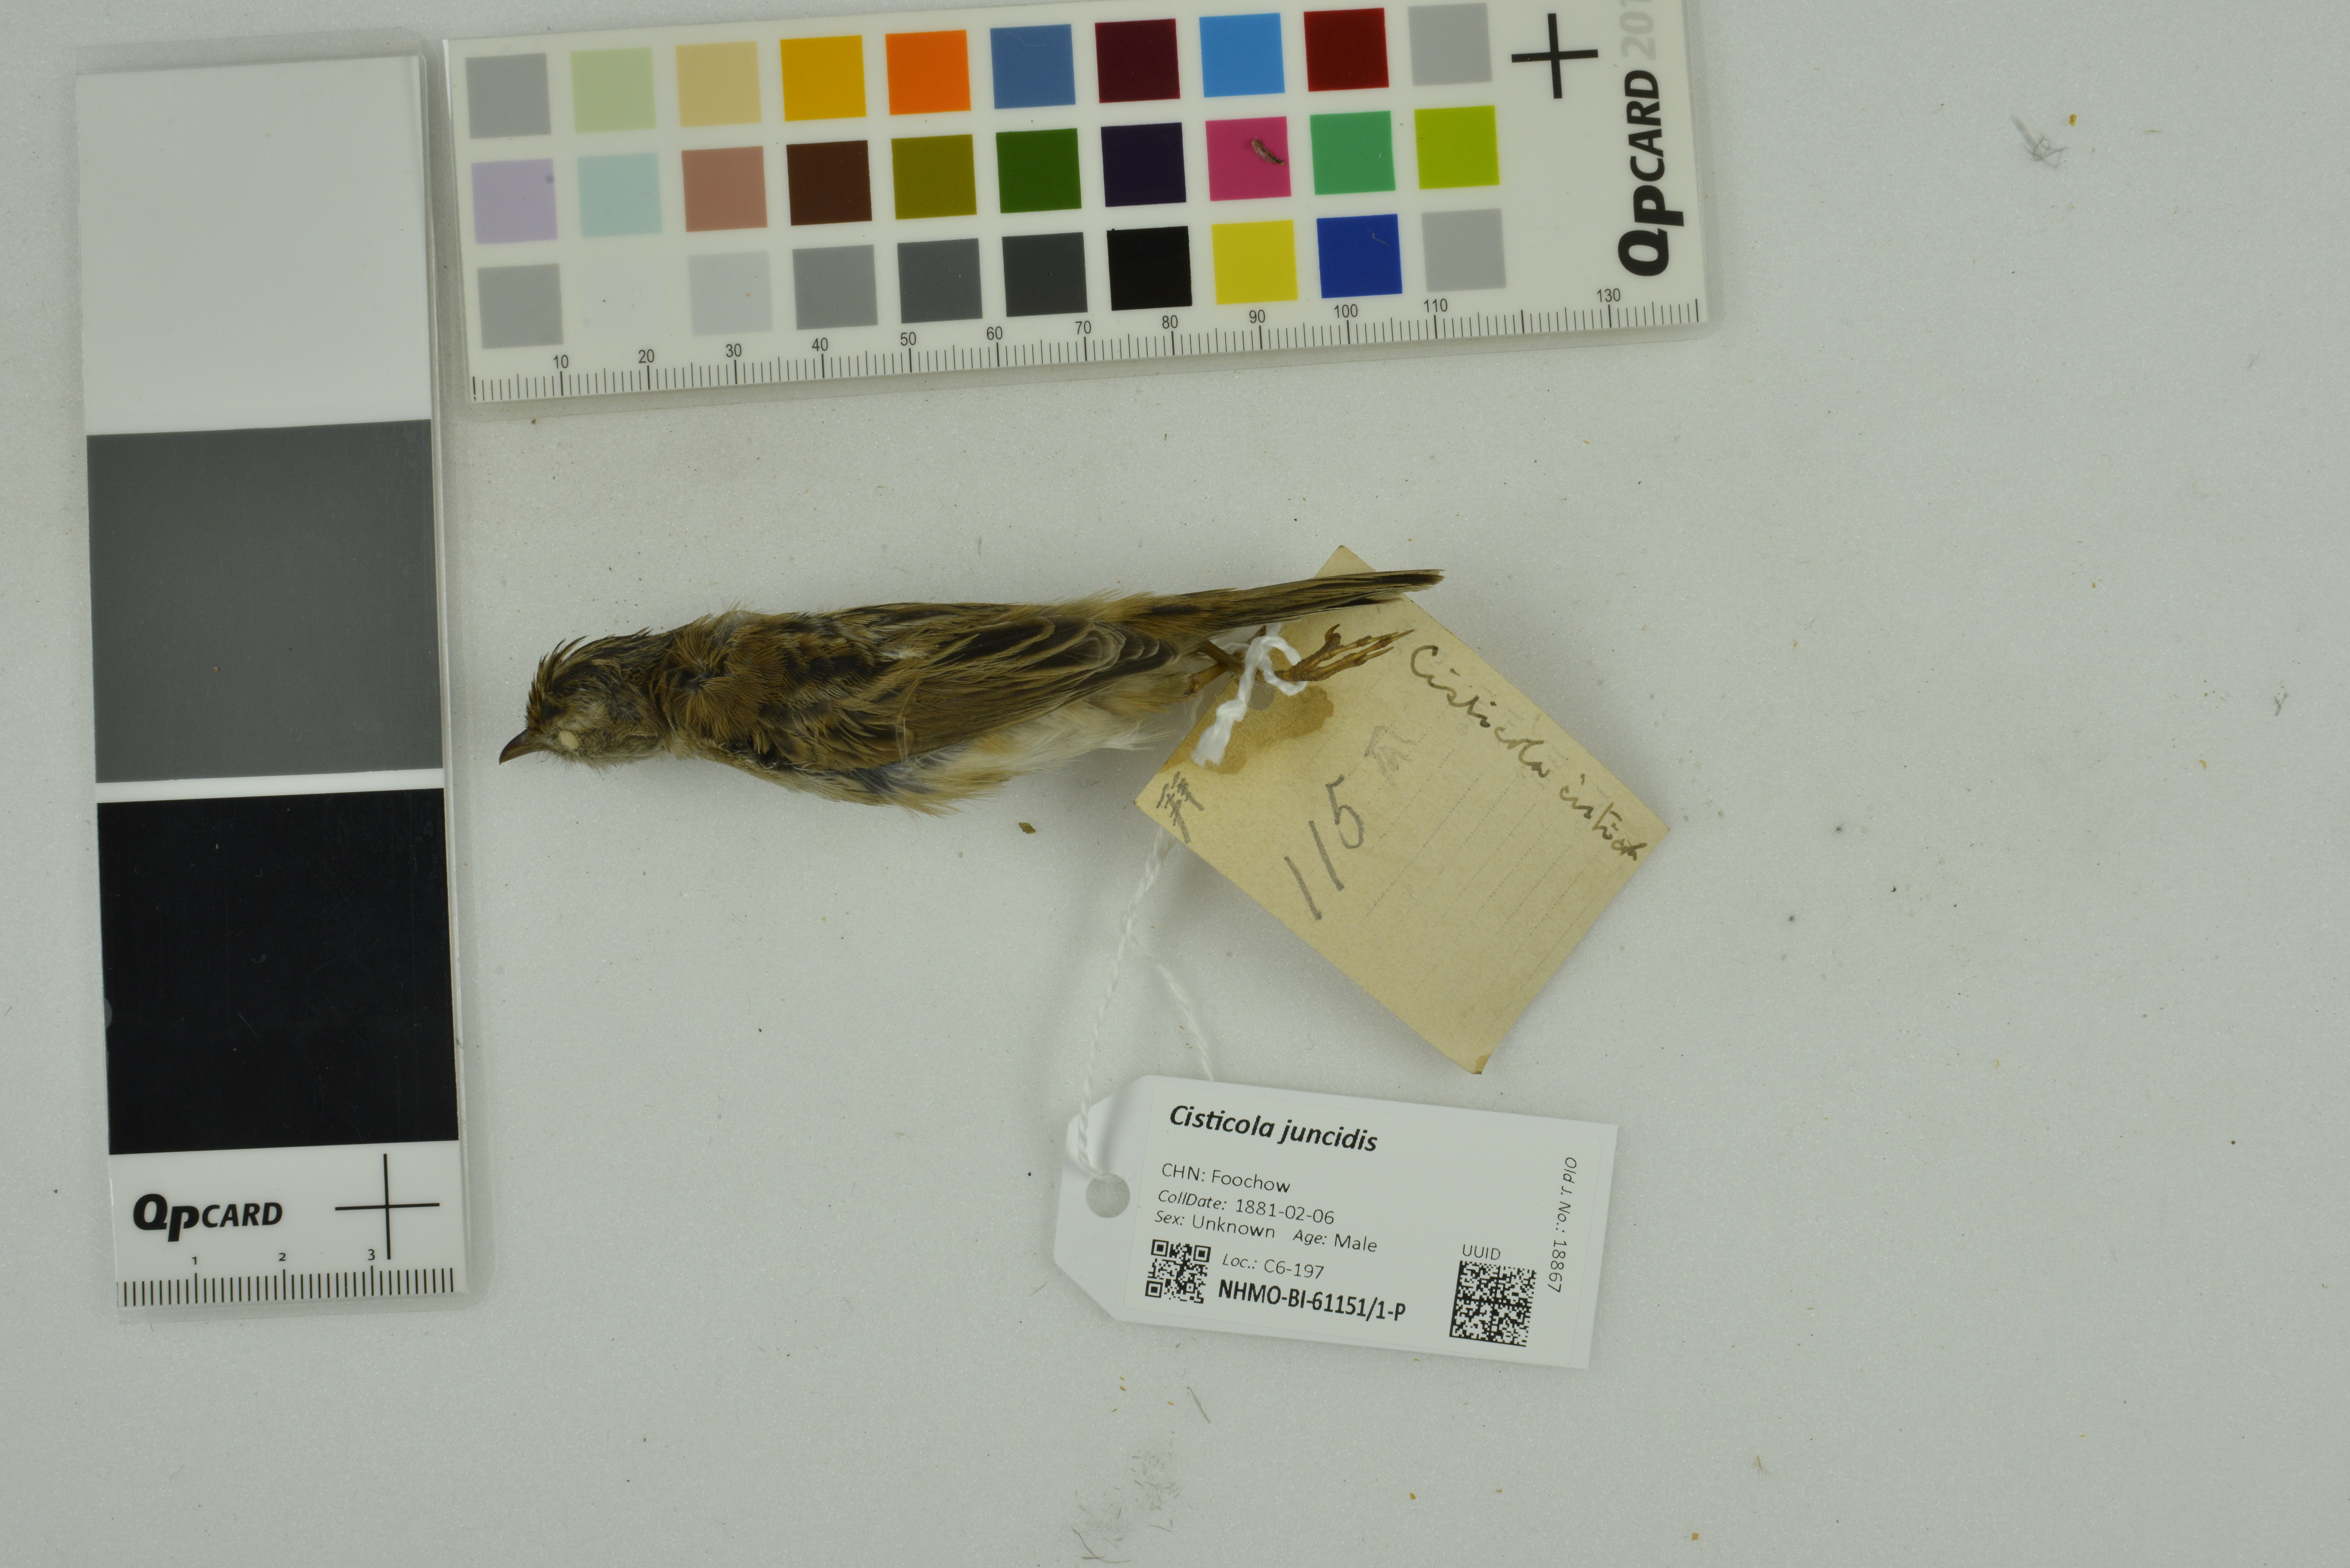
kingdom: Animalia
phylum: Chordata
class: Aves
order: Passeriformes
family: Cisticolidae
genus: Cisticola
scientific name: Cisticola juncidis
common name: Zitting cisticola
